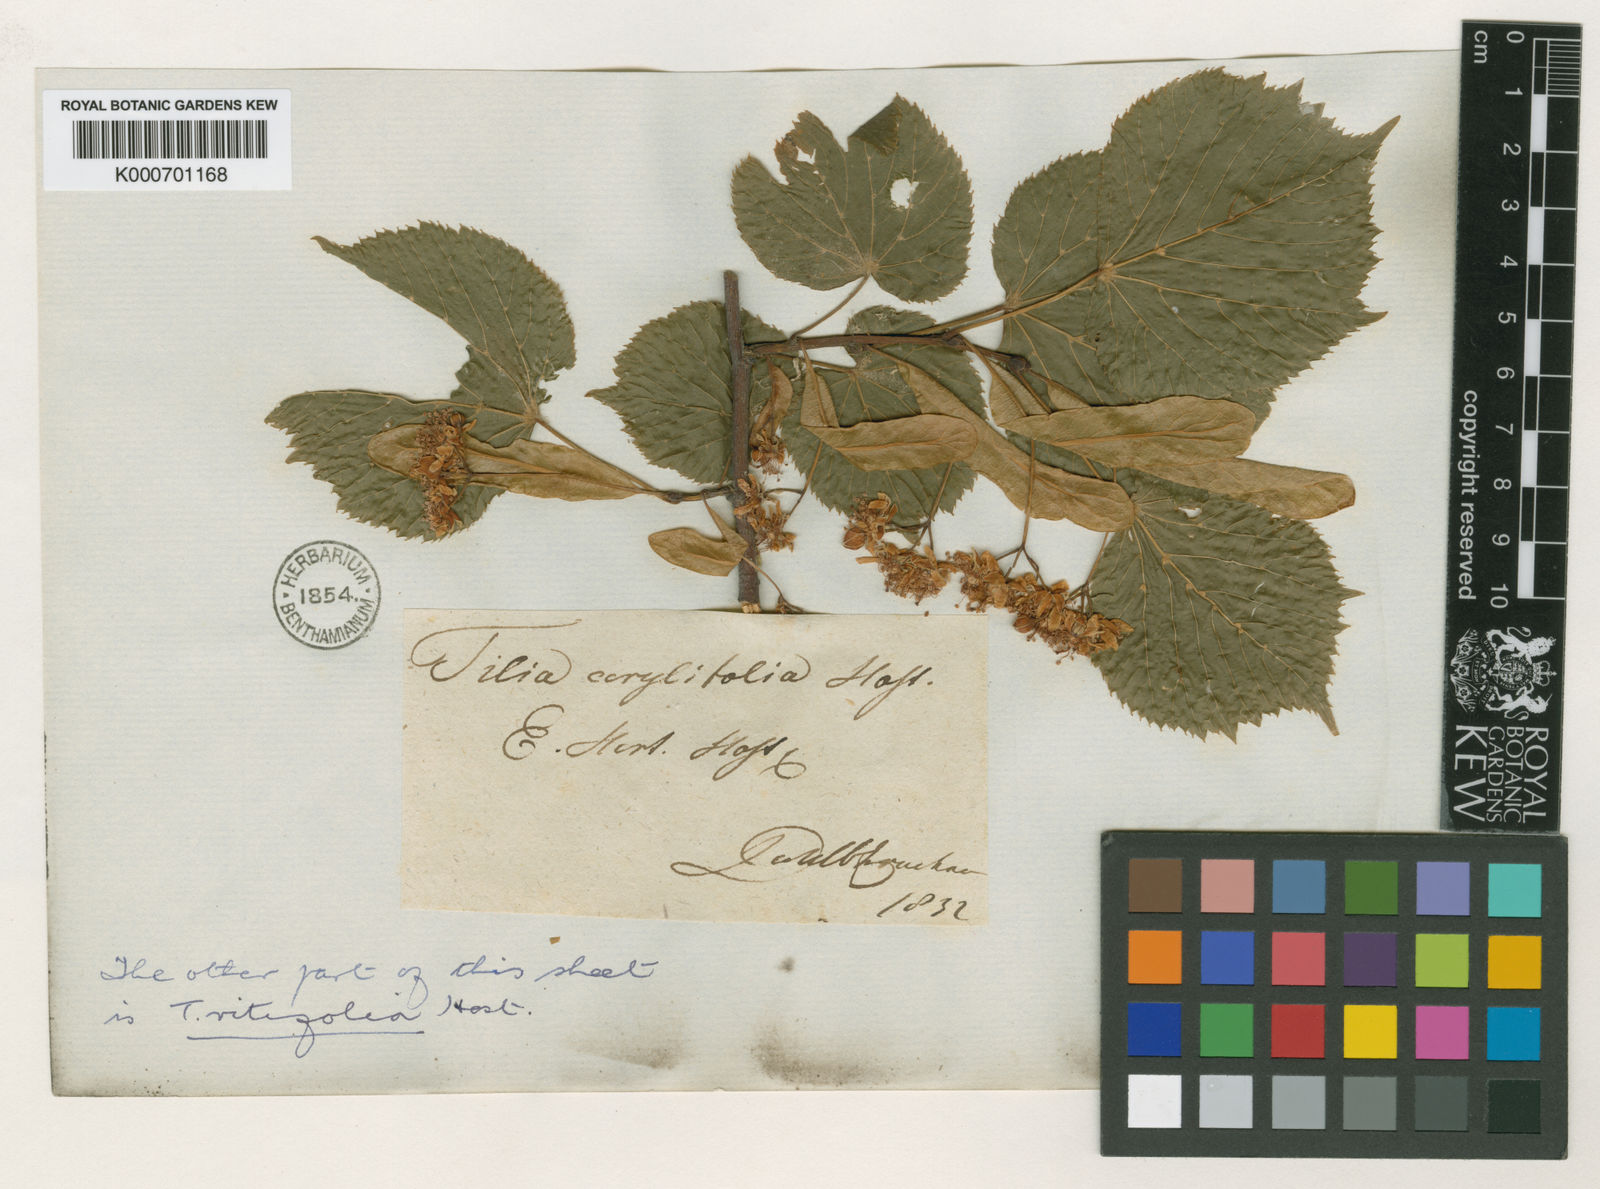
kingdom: Plantae
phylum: Tracheophyta
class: Magnoliopsida
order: Malvales
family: Malvaceae
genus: Tilia
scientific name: Tilia platyphyllos
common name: Large-leaved lime
